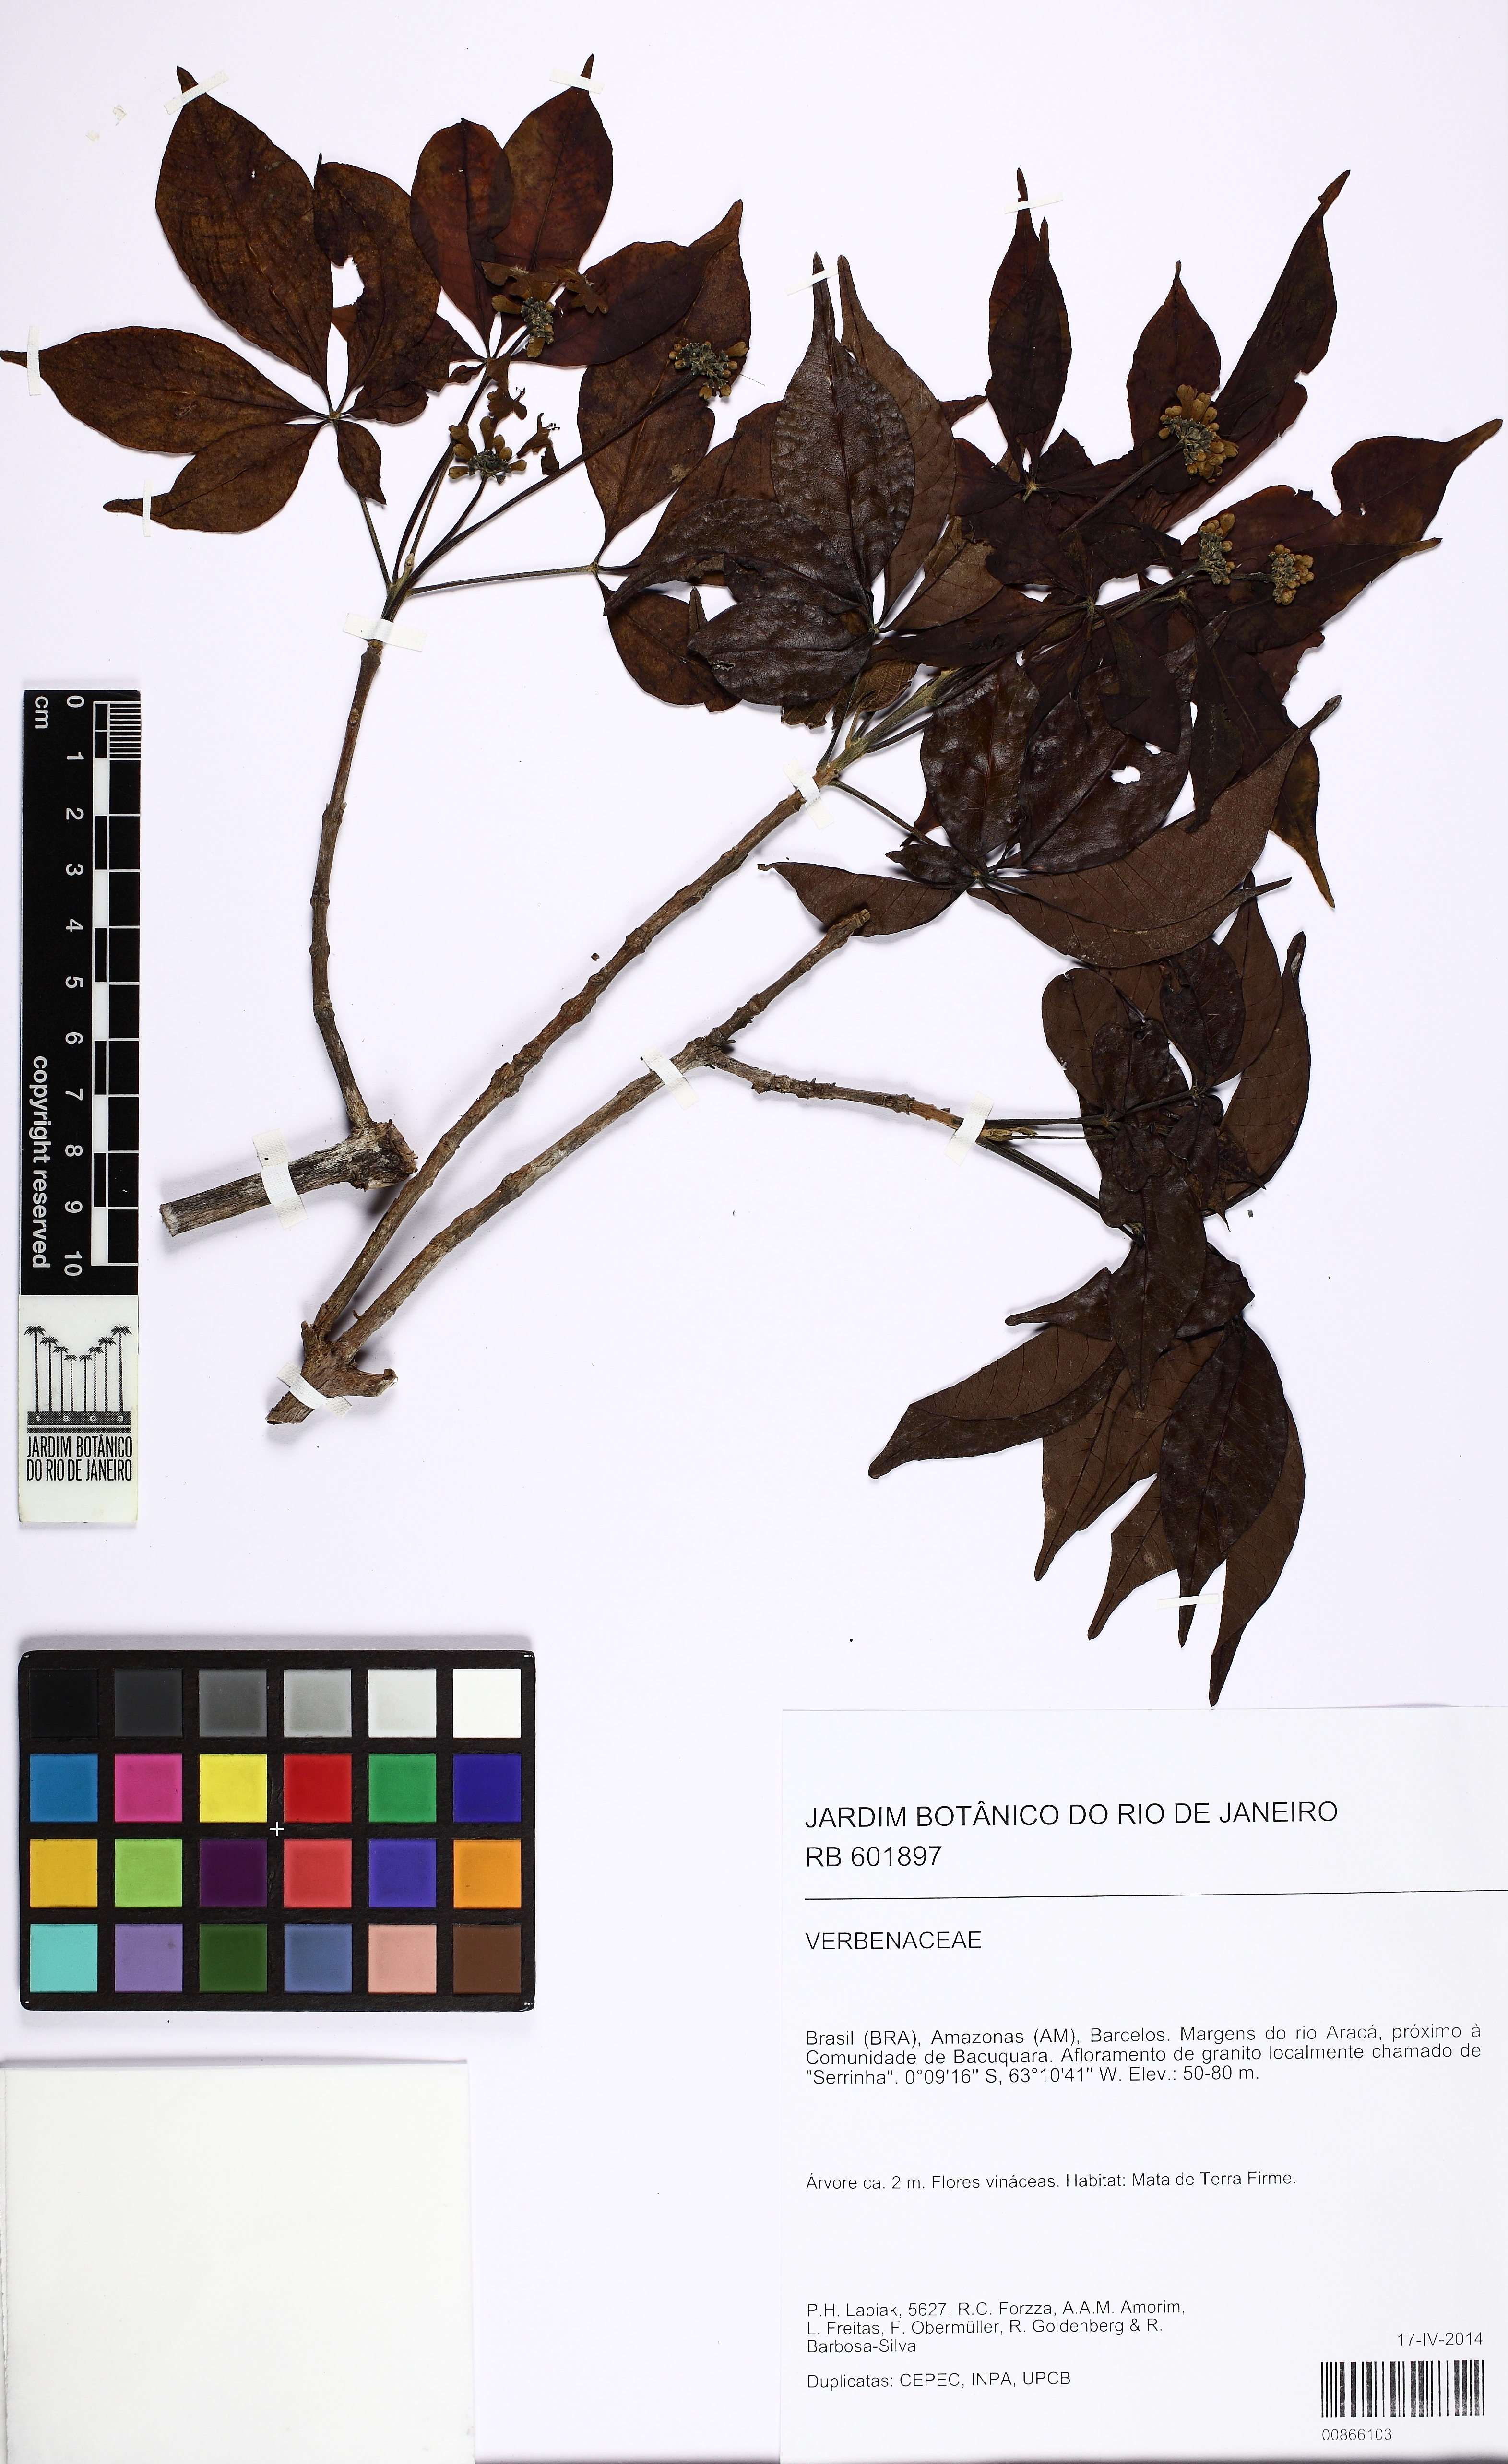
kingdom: Plantae
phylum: Tracheophyta
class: Magnoliopsida
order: Lamiales
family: Lamiaceae
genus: Vitex
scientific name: Vitex
